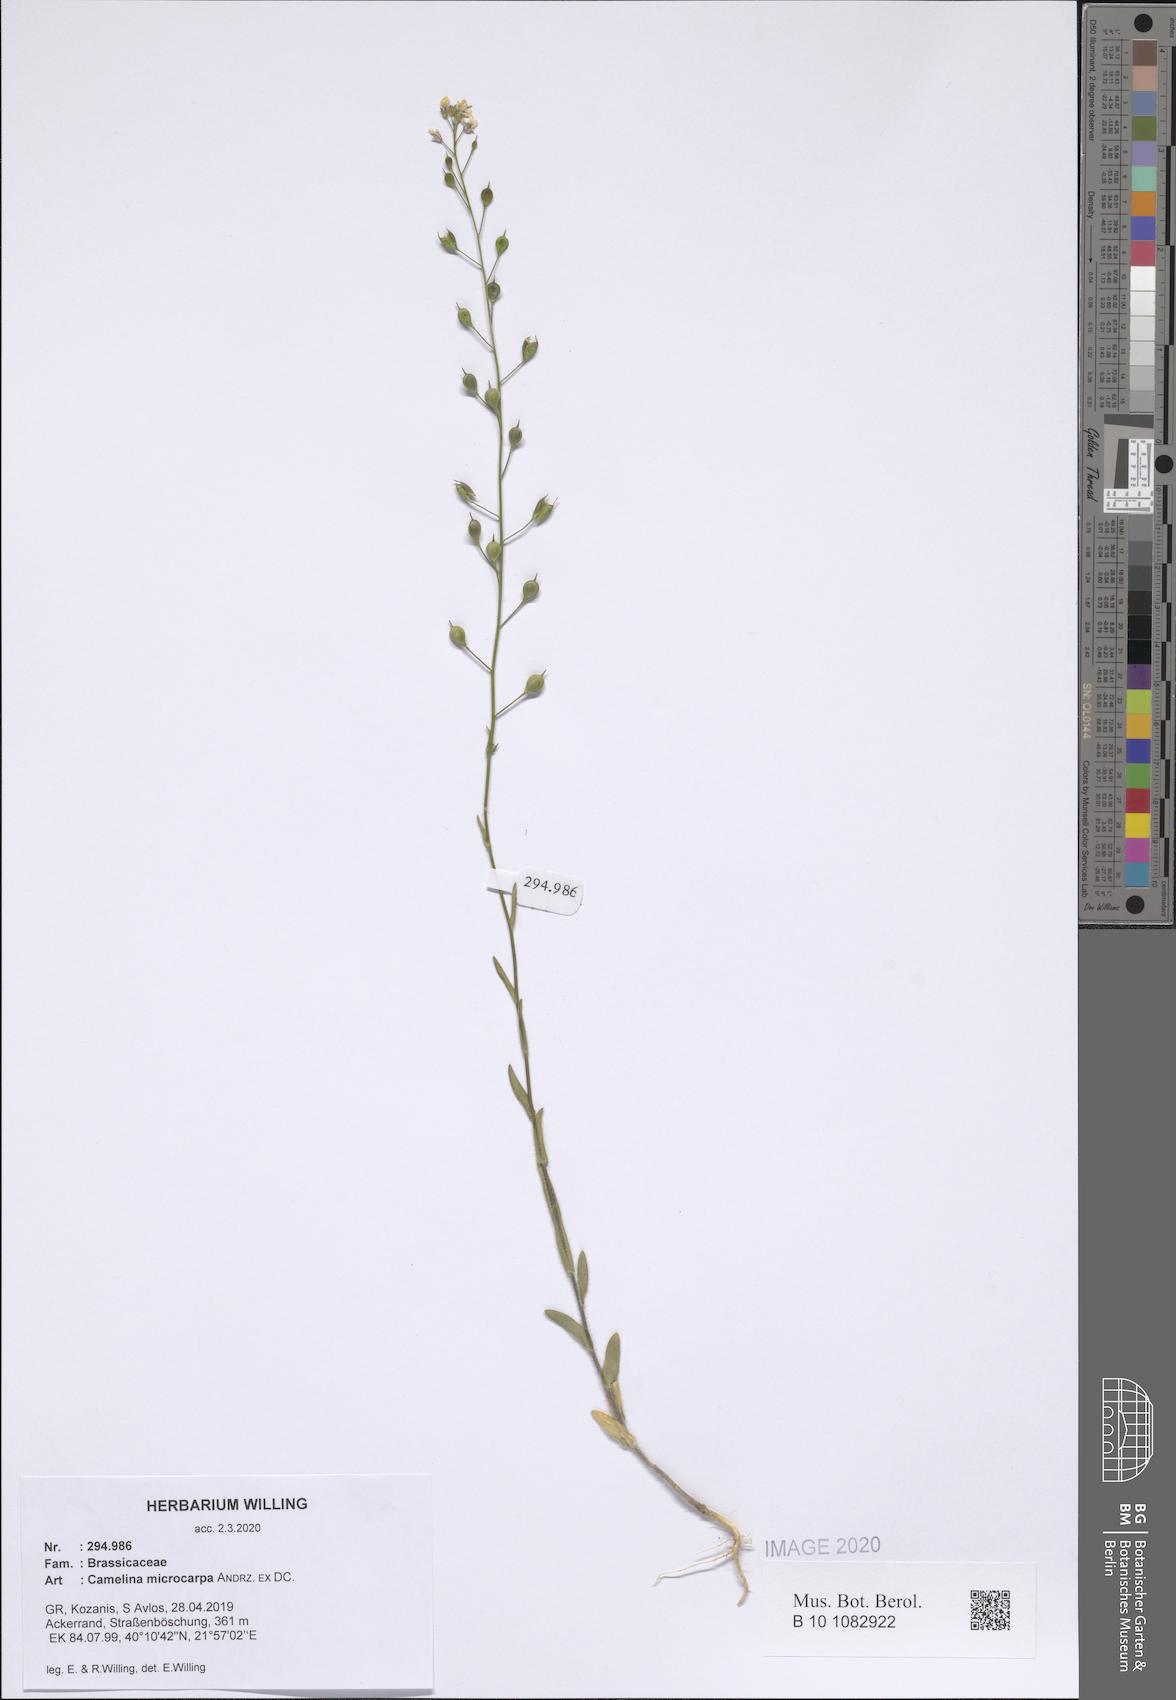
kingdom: Plantae
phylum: Tracheophyta
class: Magnoliopsida
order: Brassicales
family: Brassicaceae
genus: Camelina
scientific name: Camelina microcarpa
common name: Lesser gold-of-pleasure
